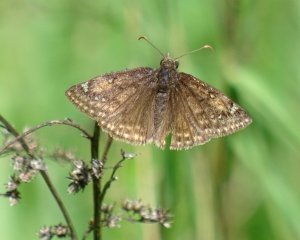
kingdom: Animalia
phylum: Arthropoda
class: Insecta
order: Lepidoptera
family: Hesperiidae
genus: Gesta
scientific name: Gesta
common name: Juvenal's Duskywing
